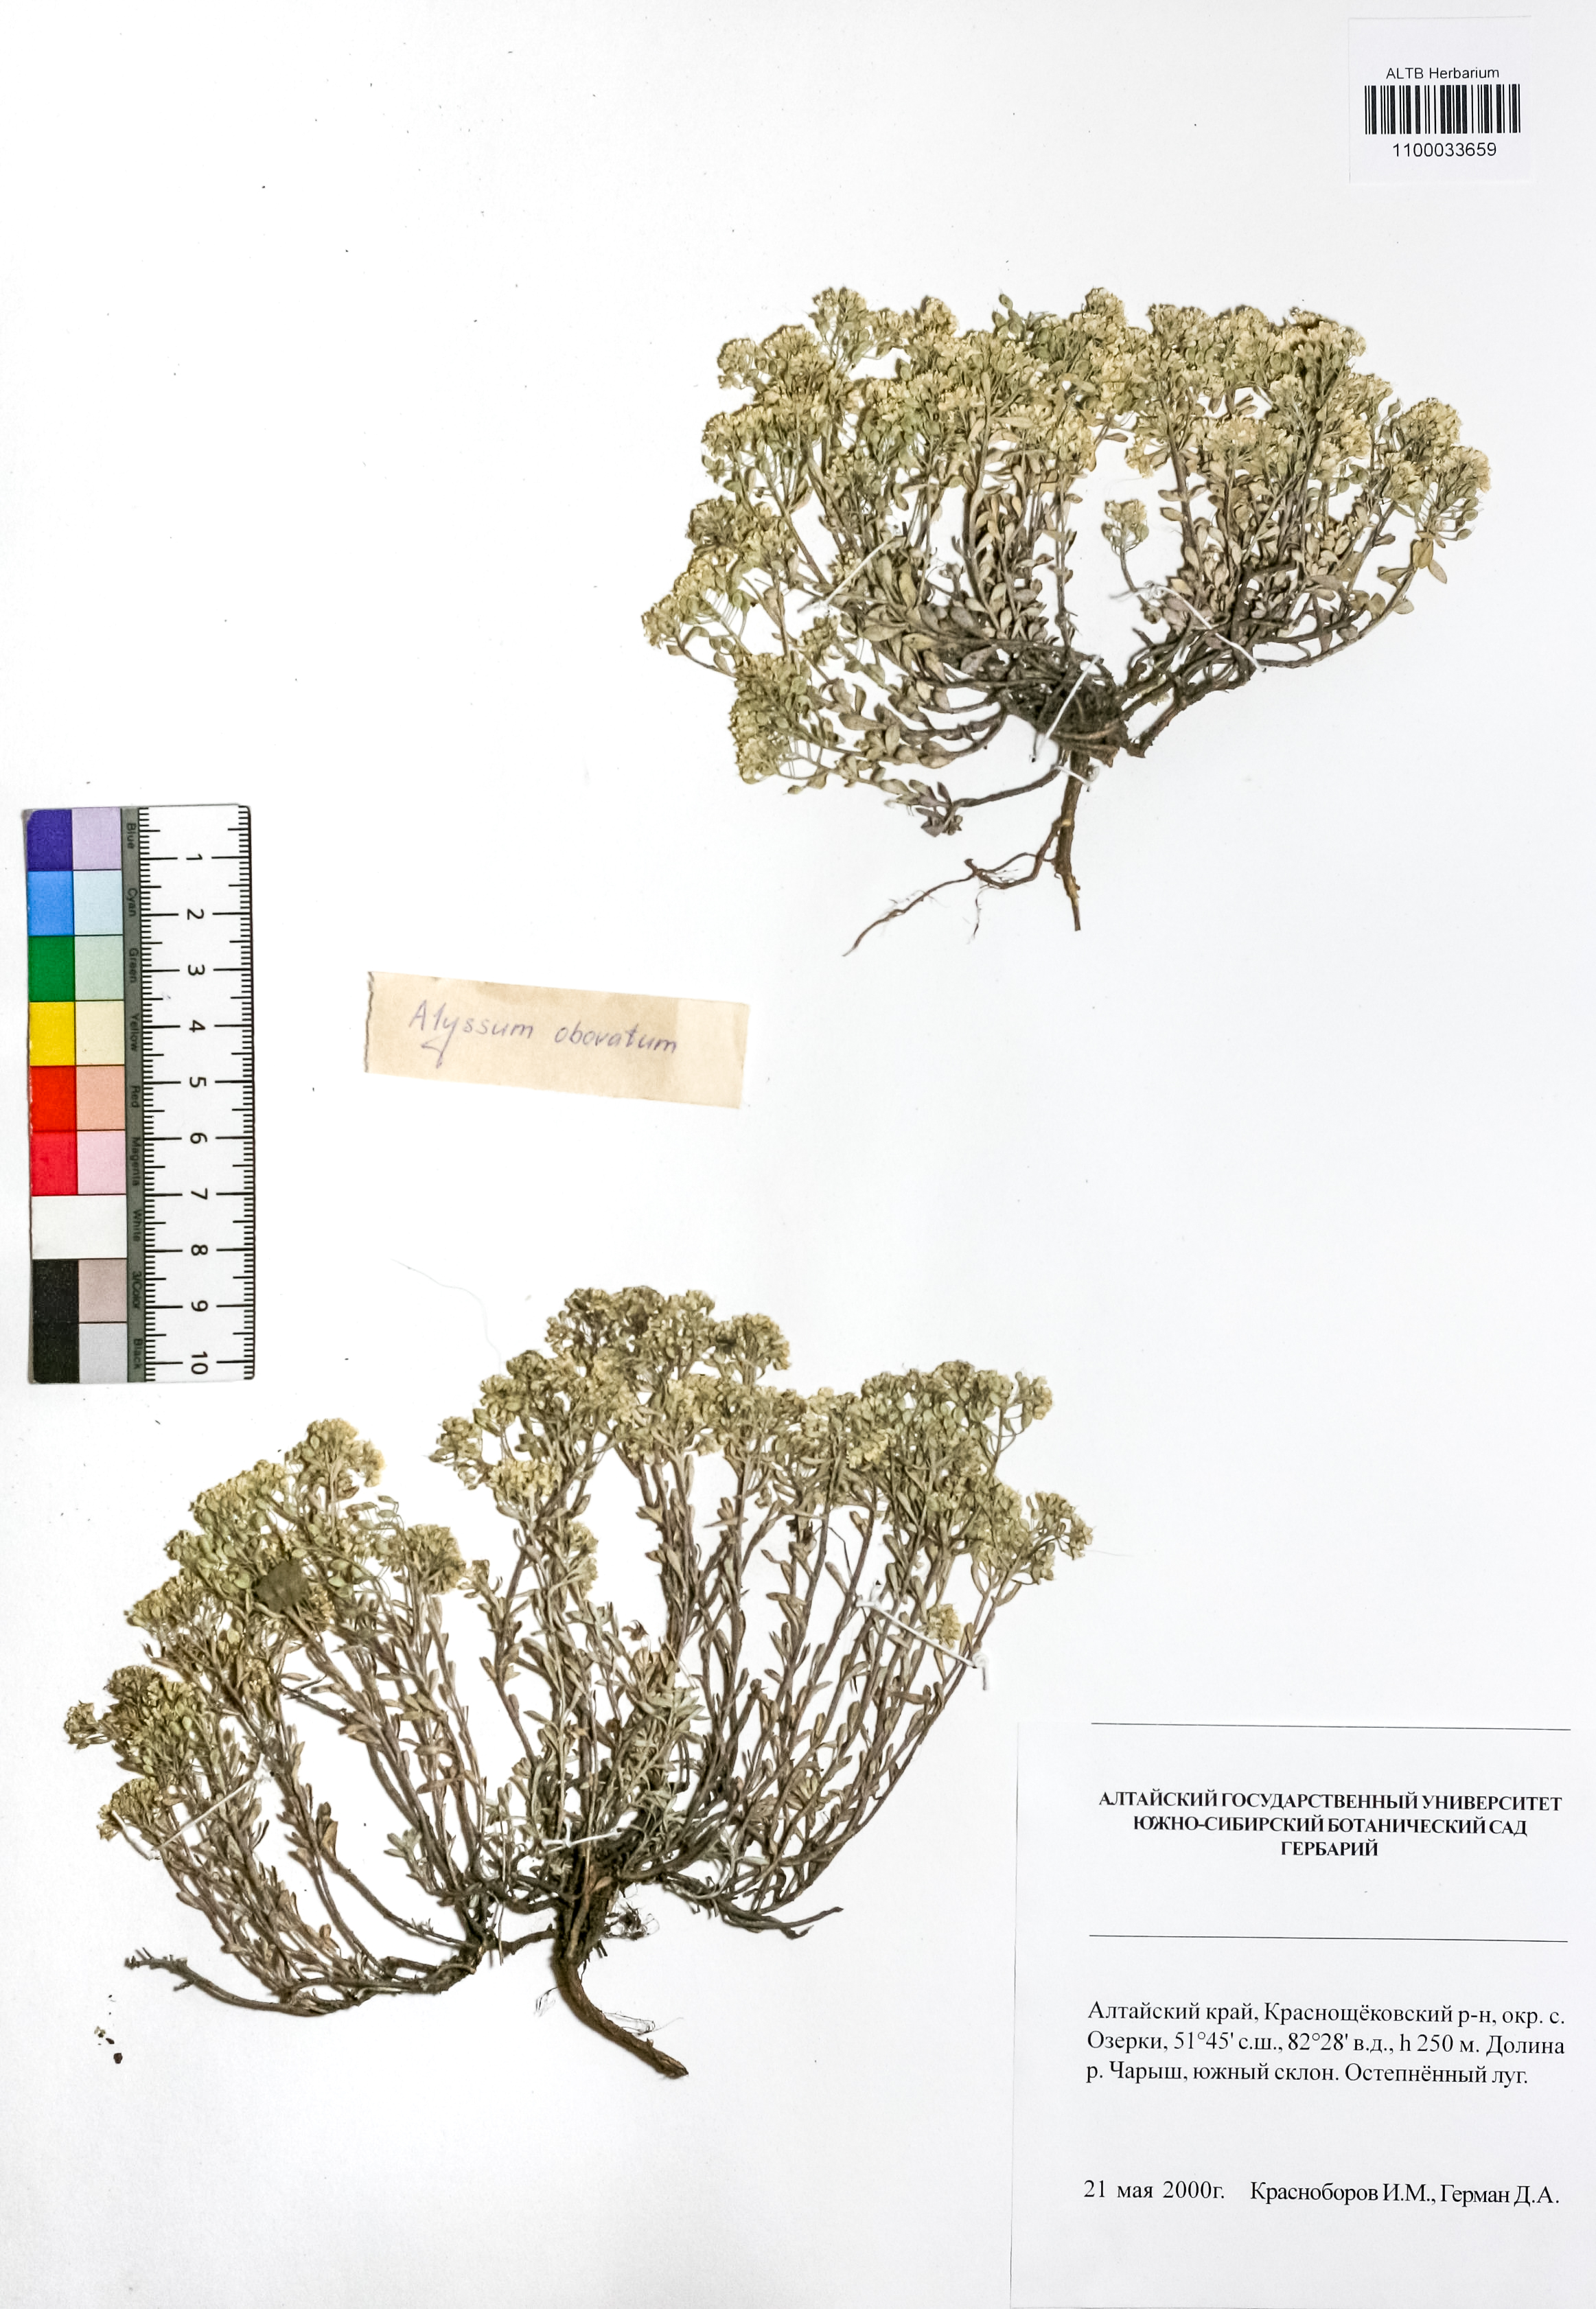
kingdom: Plantae
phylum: Tracheophyta
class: Magnoliopsida
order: Brassicales
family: Brassicaceae
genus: Odontarrhena
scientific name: Odontarrhena obovata
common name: American alyssum
